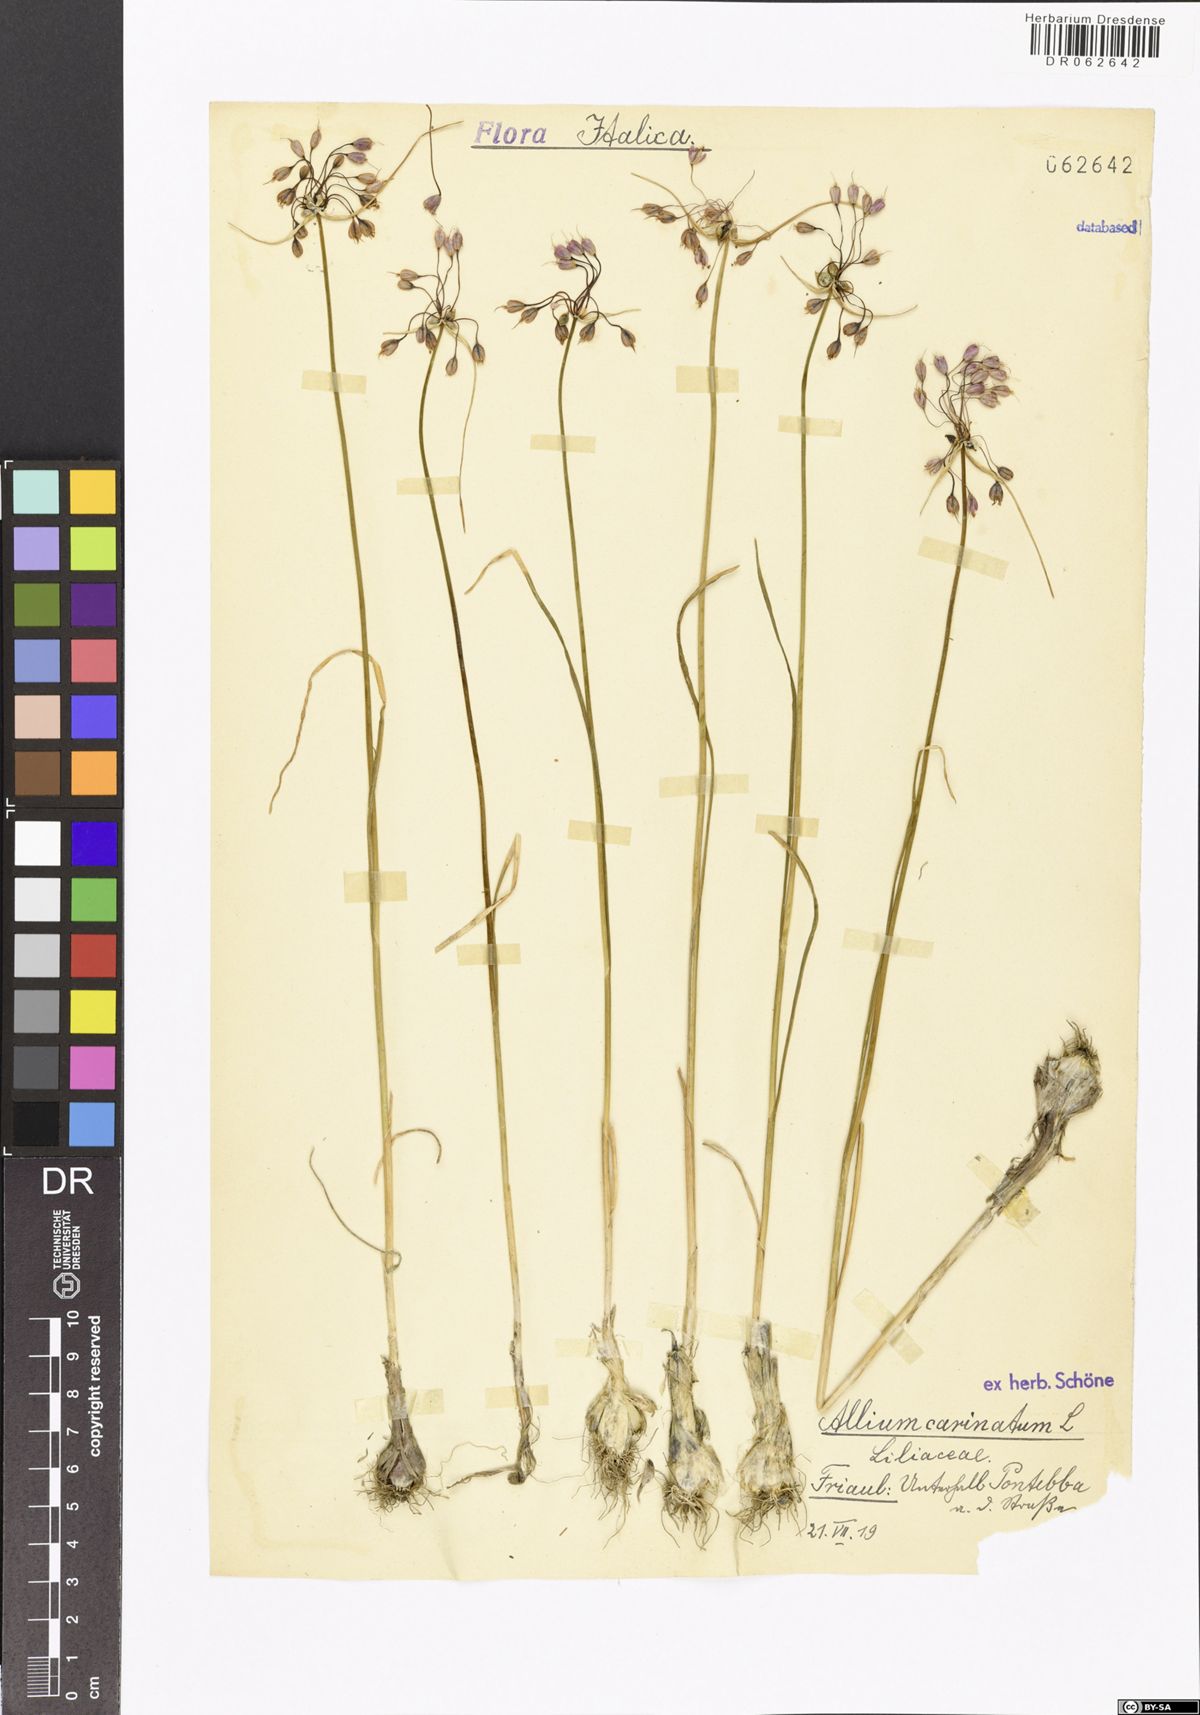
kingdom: Plantae
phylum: Tracheophyta
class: Liliopsida
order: Asparagales
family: Amaryllidaceae
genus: Allium
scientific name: Allium carinatum
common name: Keeled garlic
